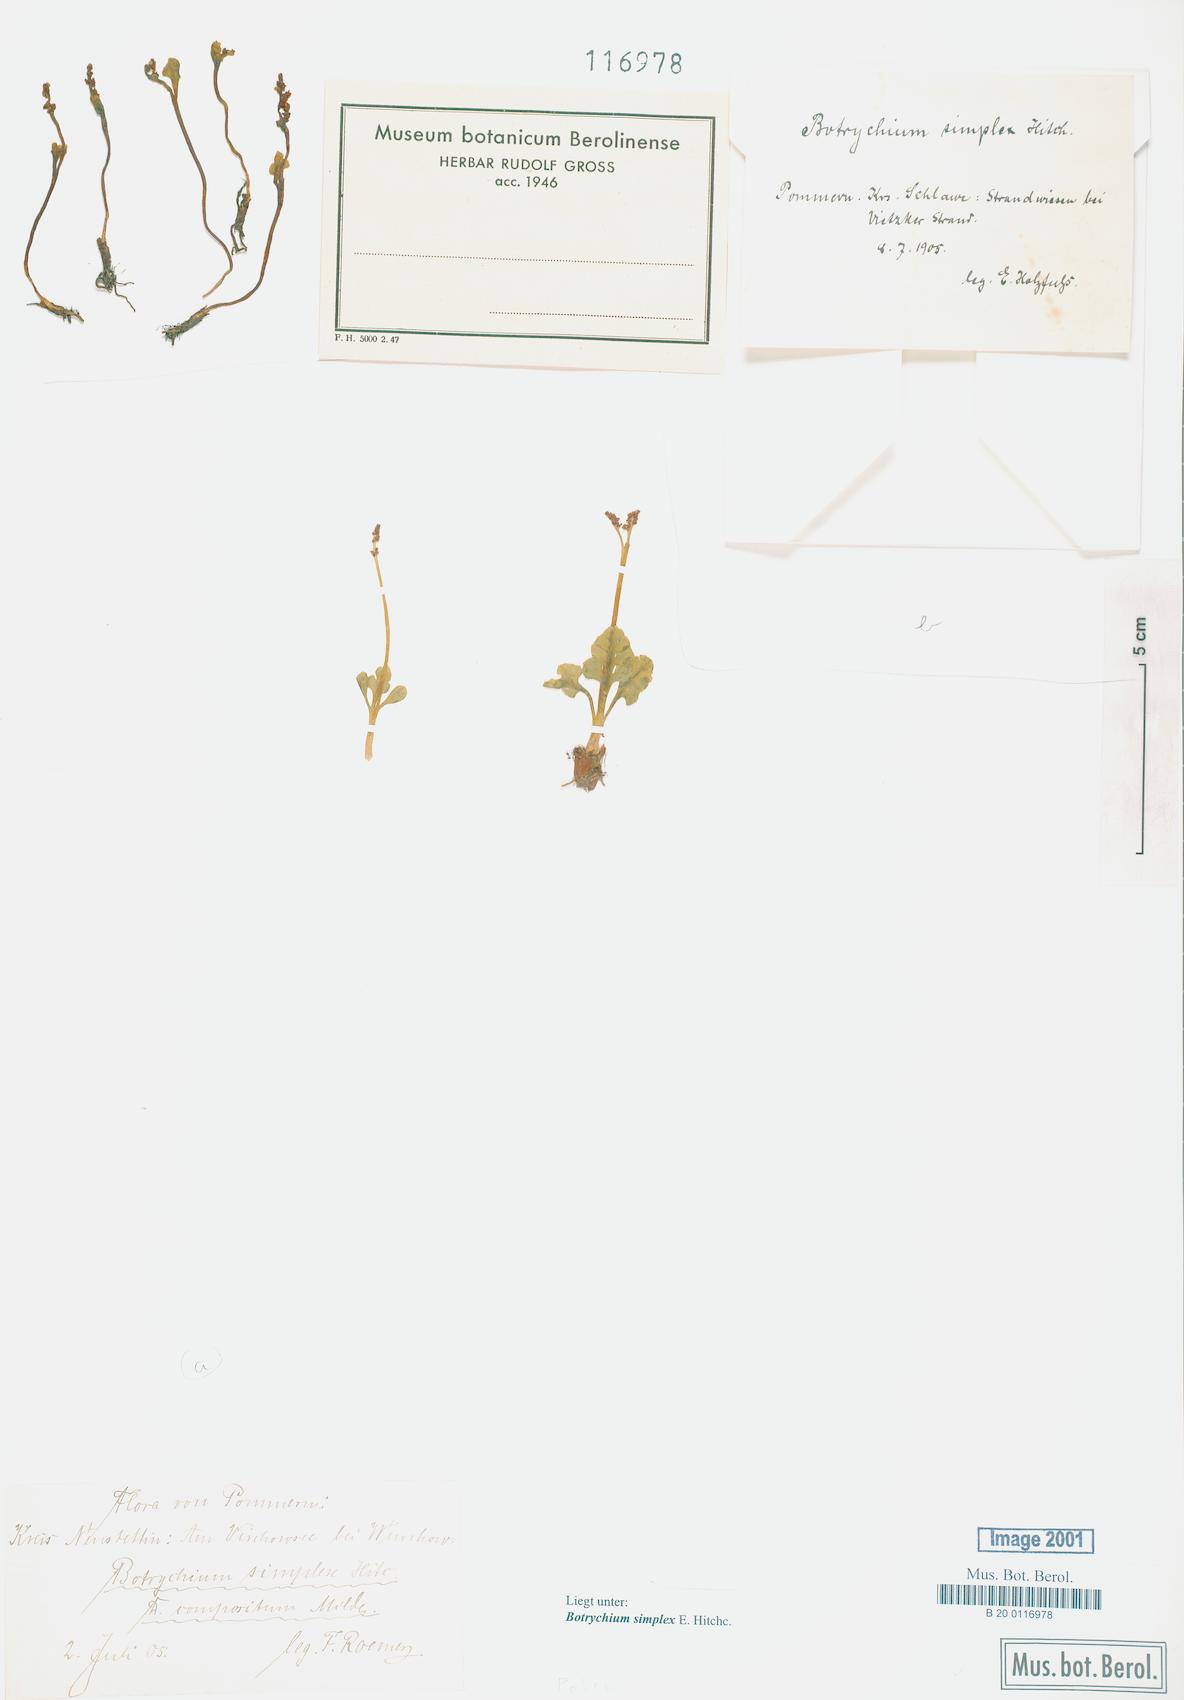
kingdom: Plantae
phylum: Tracheophyta
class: Polypodiopsida
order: Ophioglossales
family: Ophioglossaceae
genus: Botrychium
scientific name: Botrychium simplex
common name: Least moonwort
